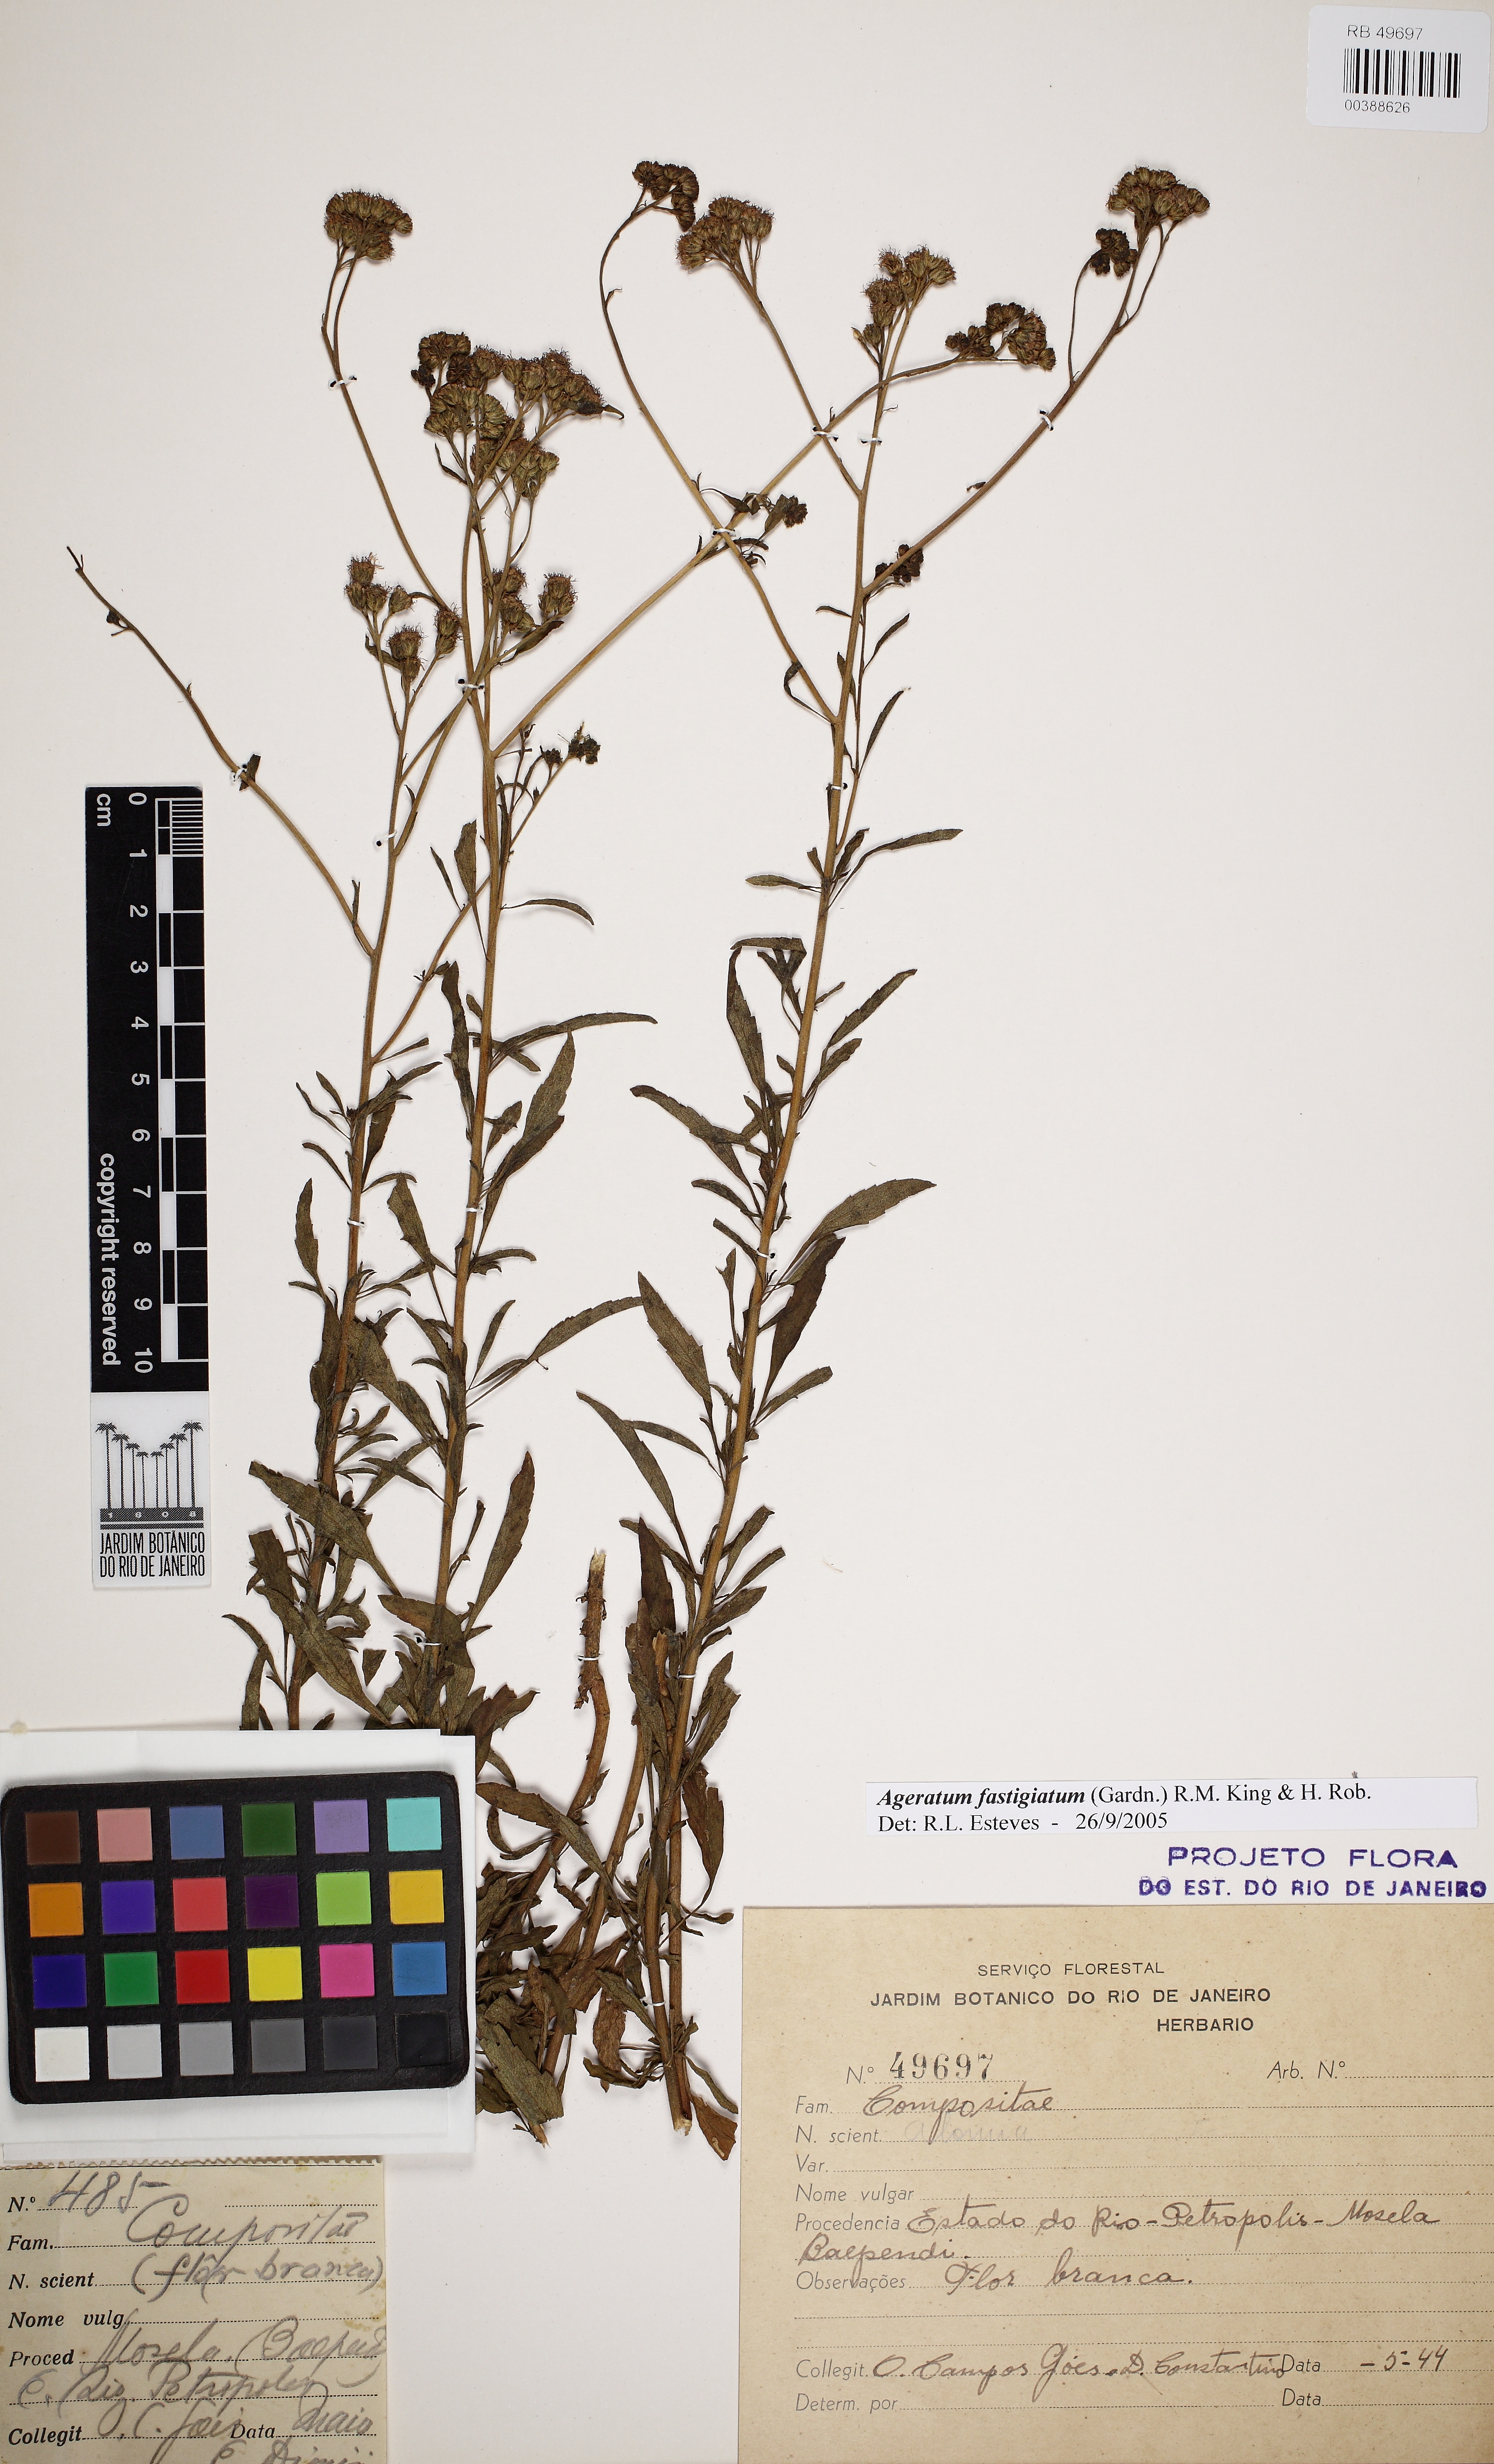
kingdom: Plantae
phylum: Tracheophyta
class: Magnoliopsida
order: Asterales
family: Asteraceae
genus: Ageratum
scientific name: Ageratum fastigiatum
